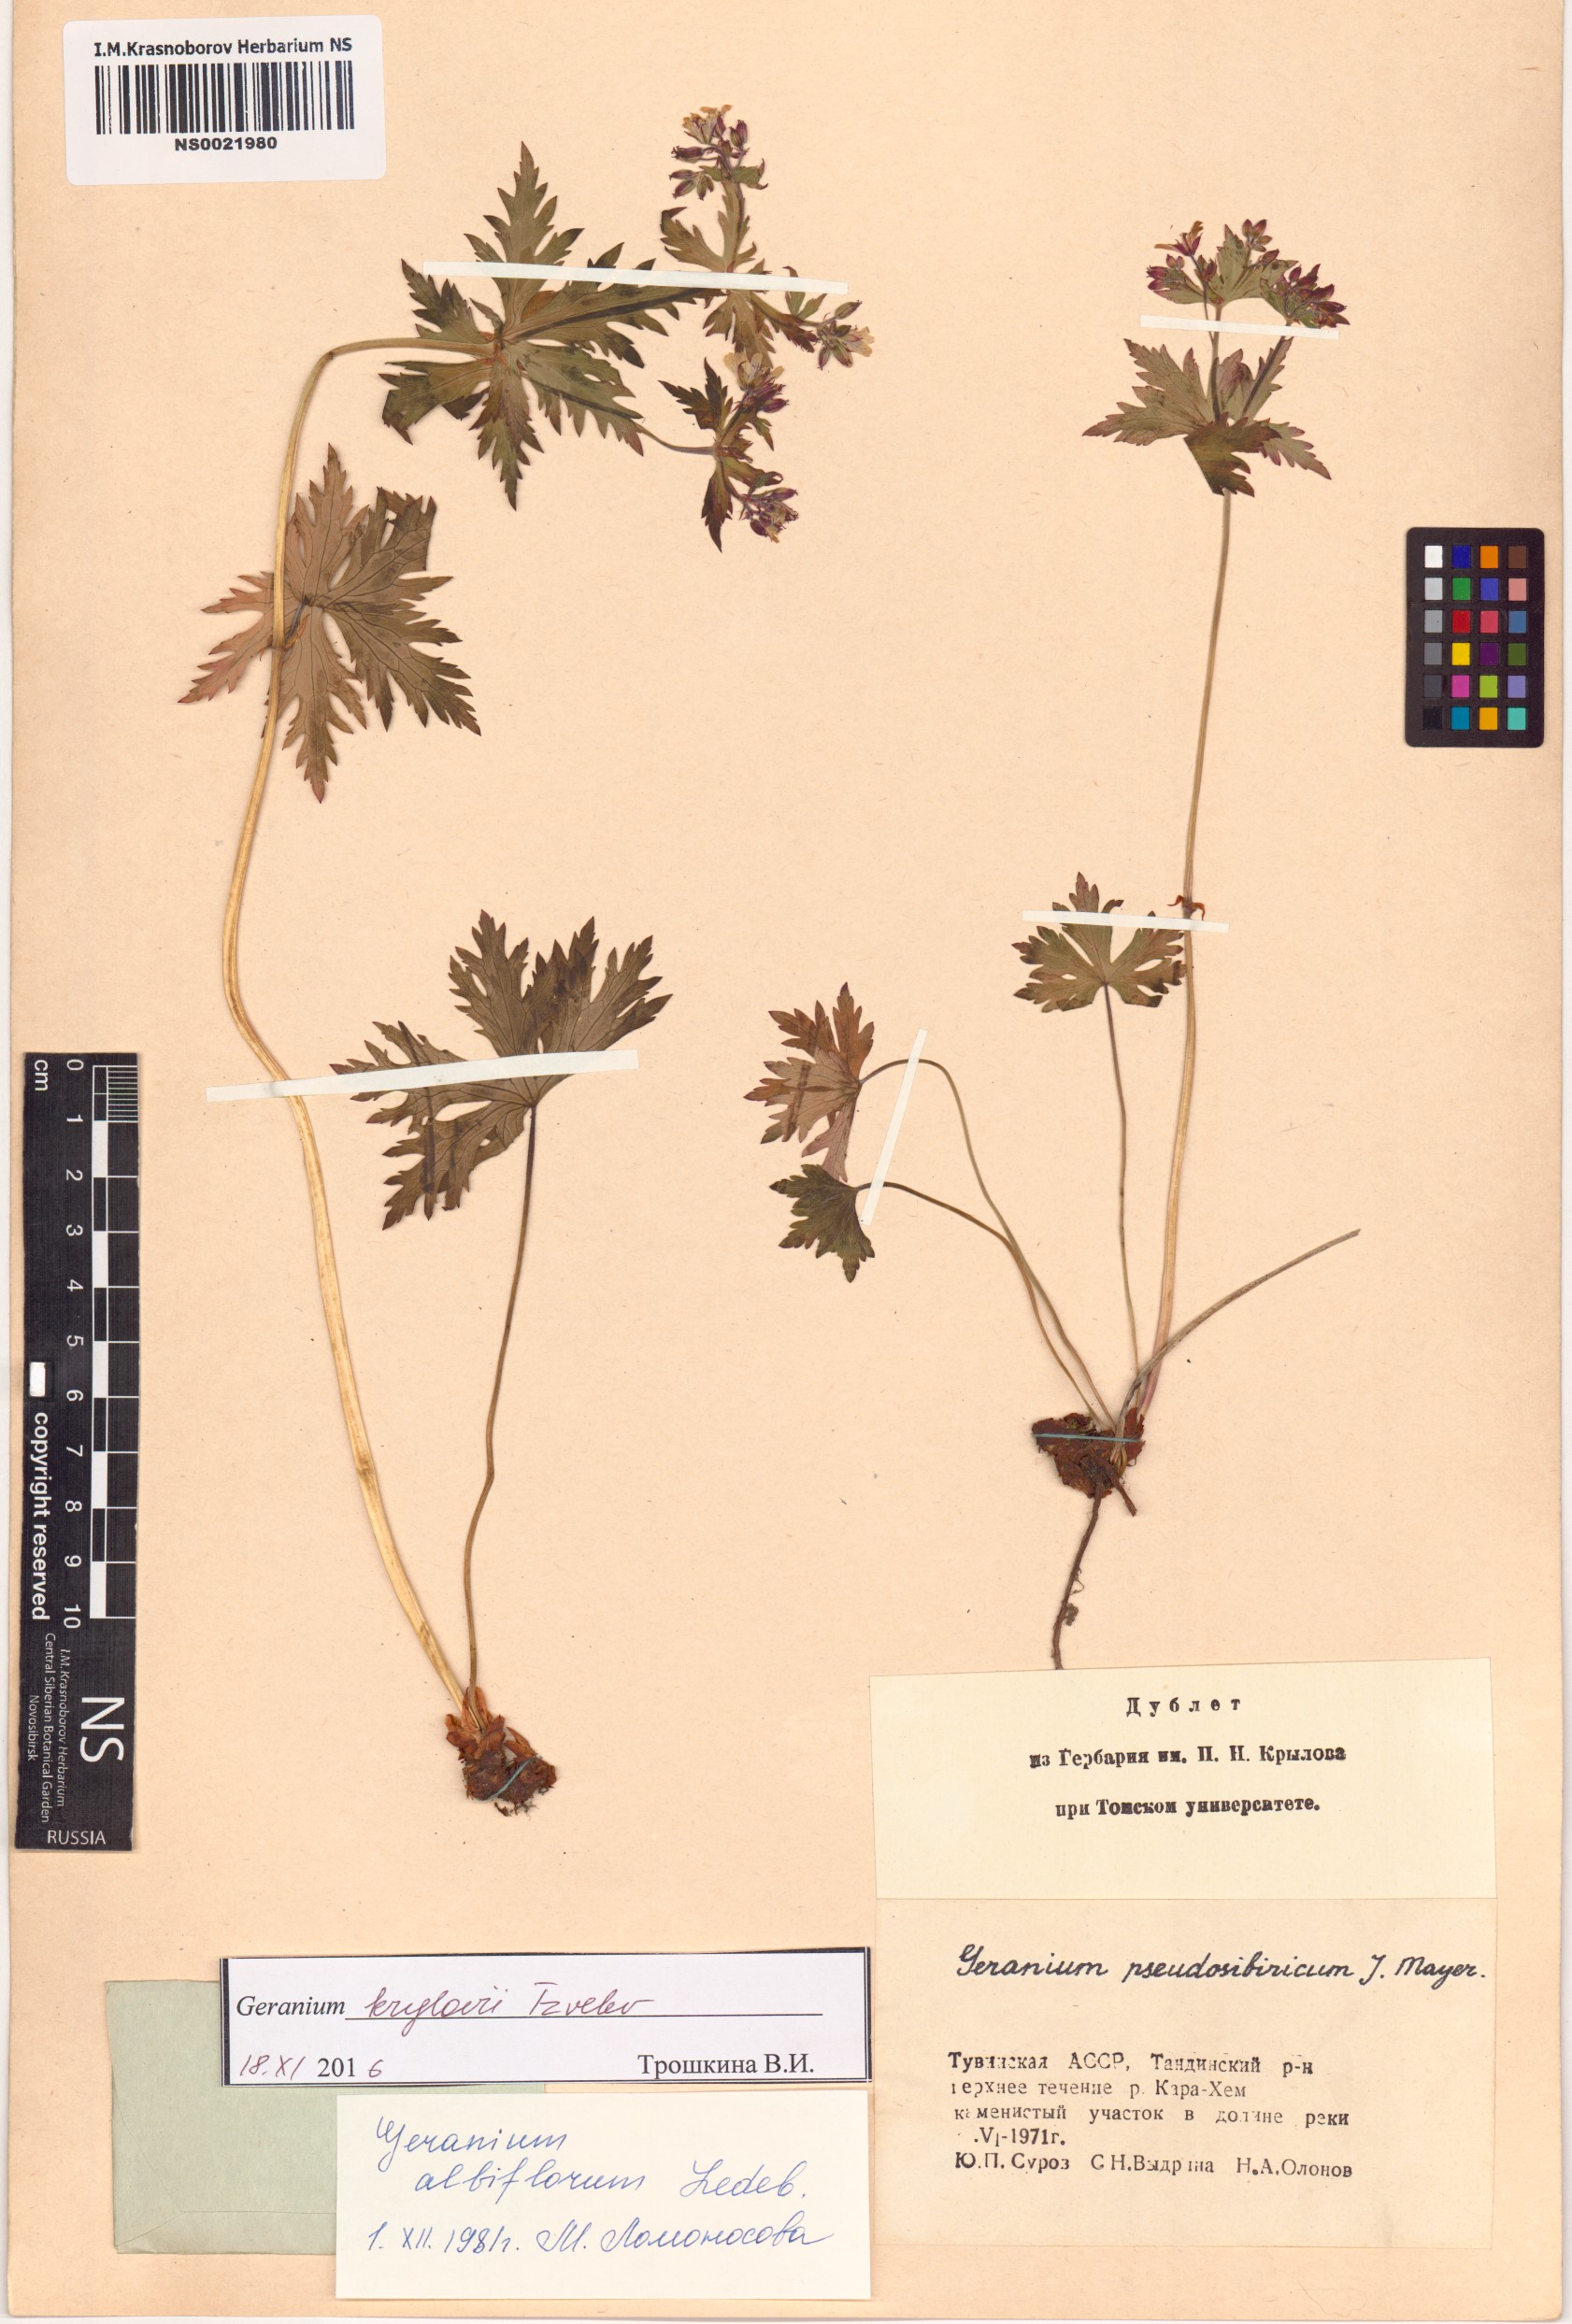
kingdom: Plantae
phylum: Tracheophyta
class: Magnoliopsida
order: Geraniales
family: Geraniaceae
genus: Geranium
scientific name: Geranium sylvaticum
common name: Wood crane's-bill
